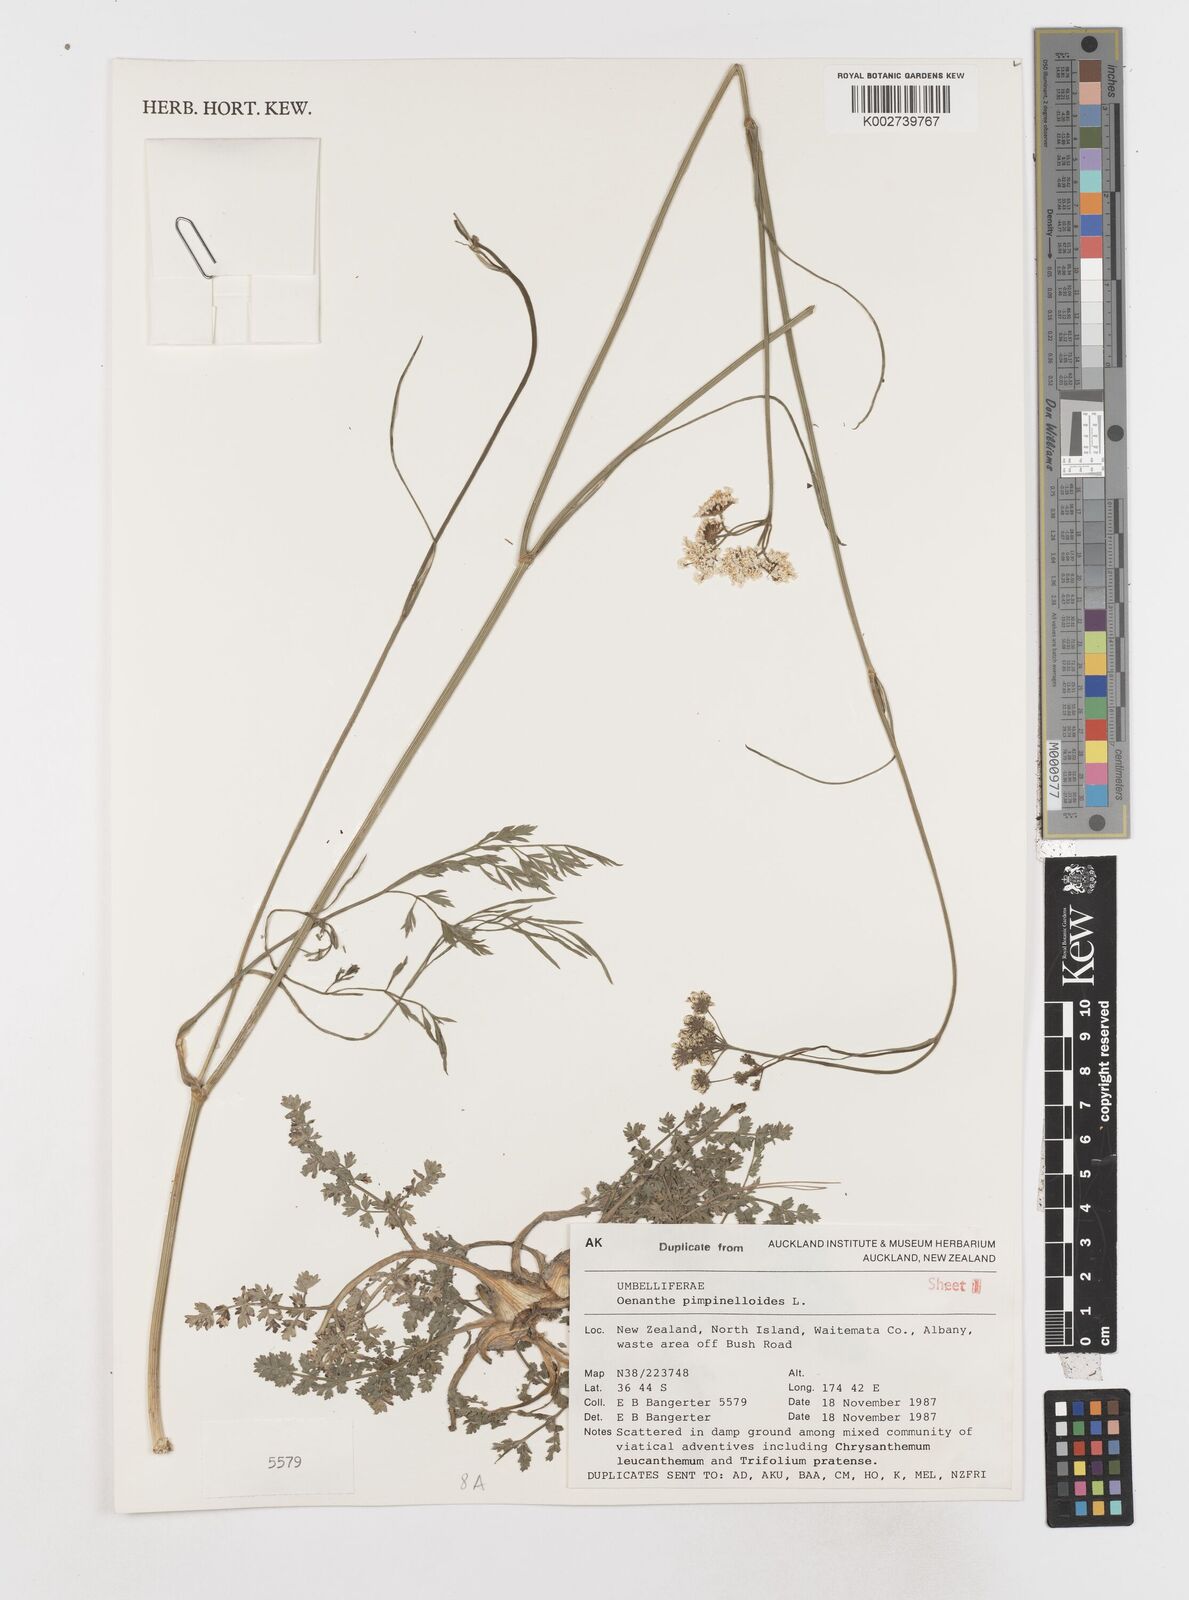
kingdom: Plantae
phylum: Tracheophyta
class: Magnoliopsida
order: Apiales
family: Apiaceae
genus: Oenanthe
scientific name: Oenanthe pimpinelloides
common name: Corky-fruited water-dropwort
